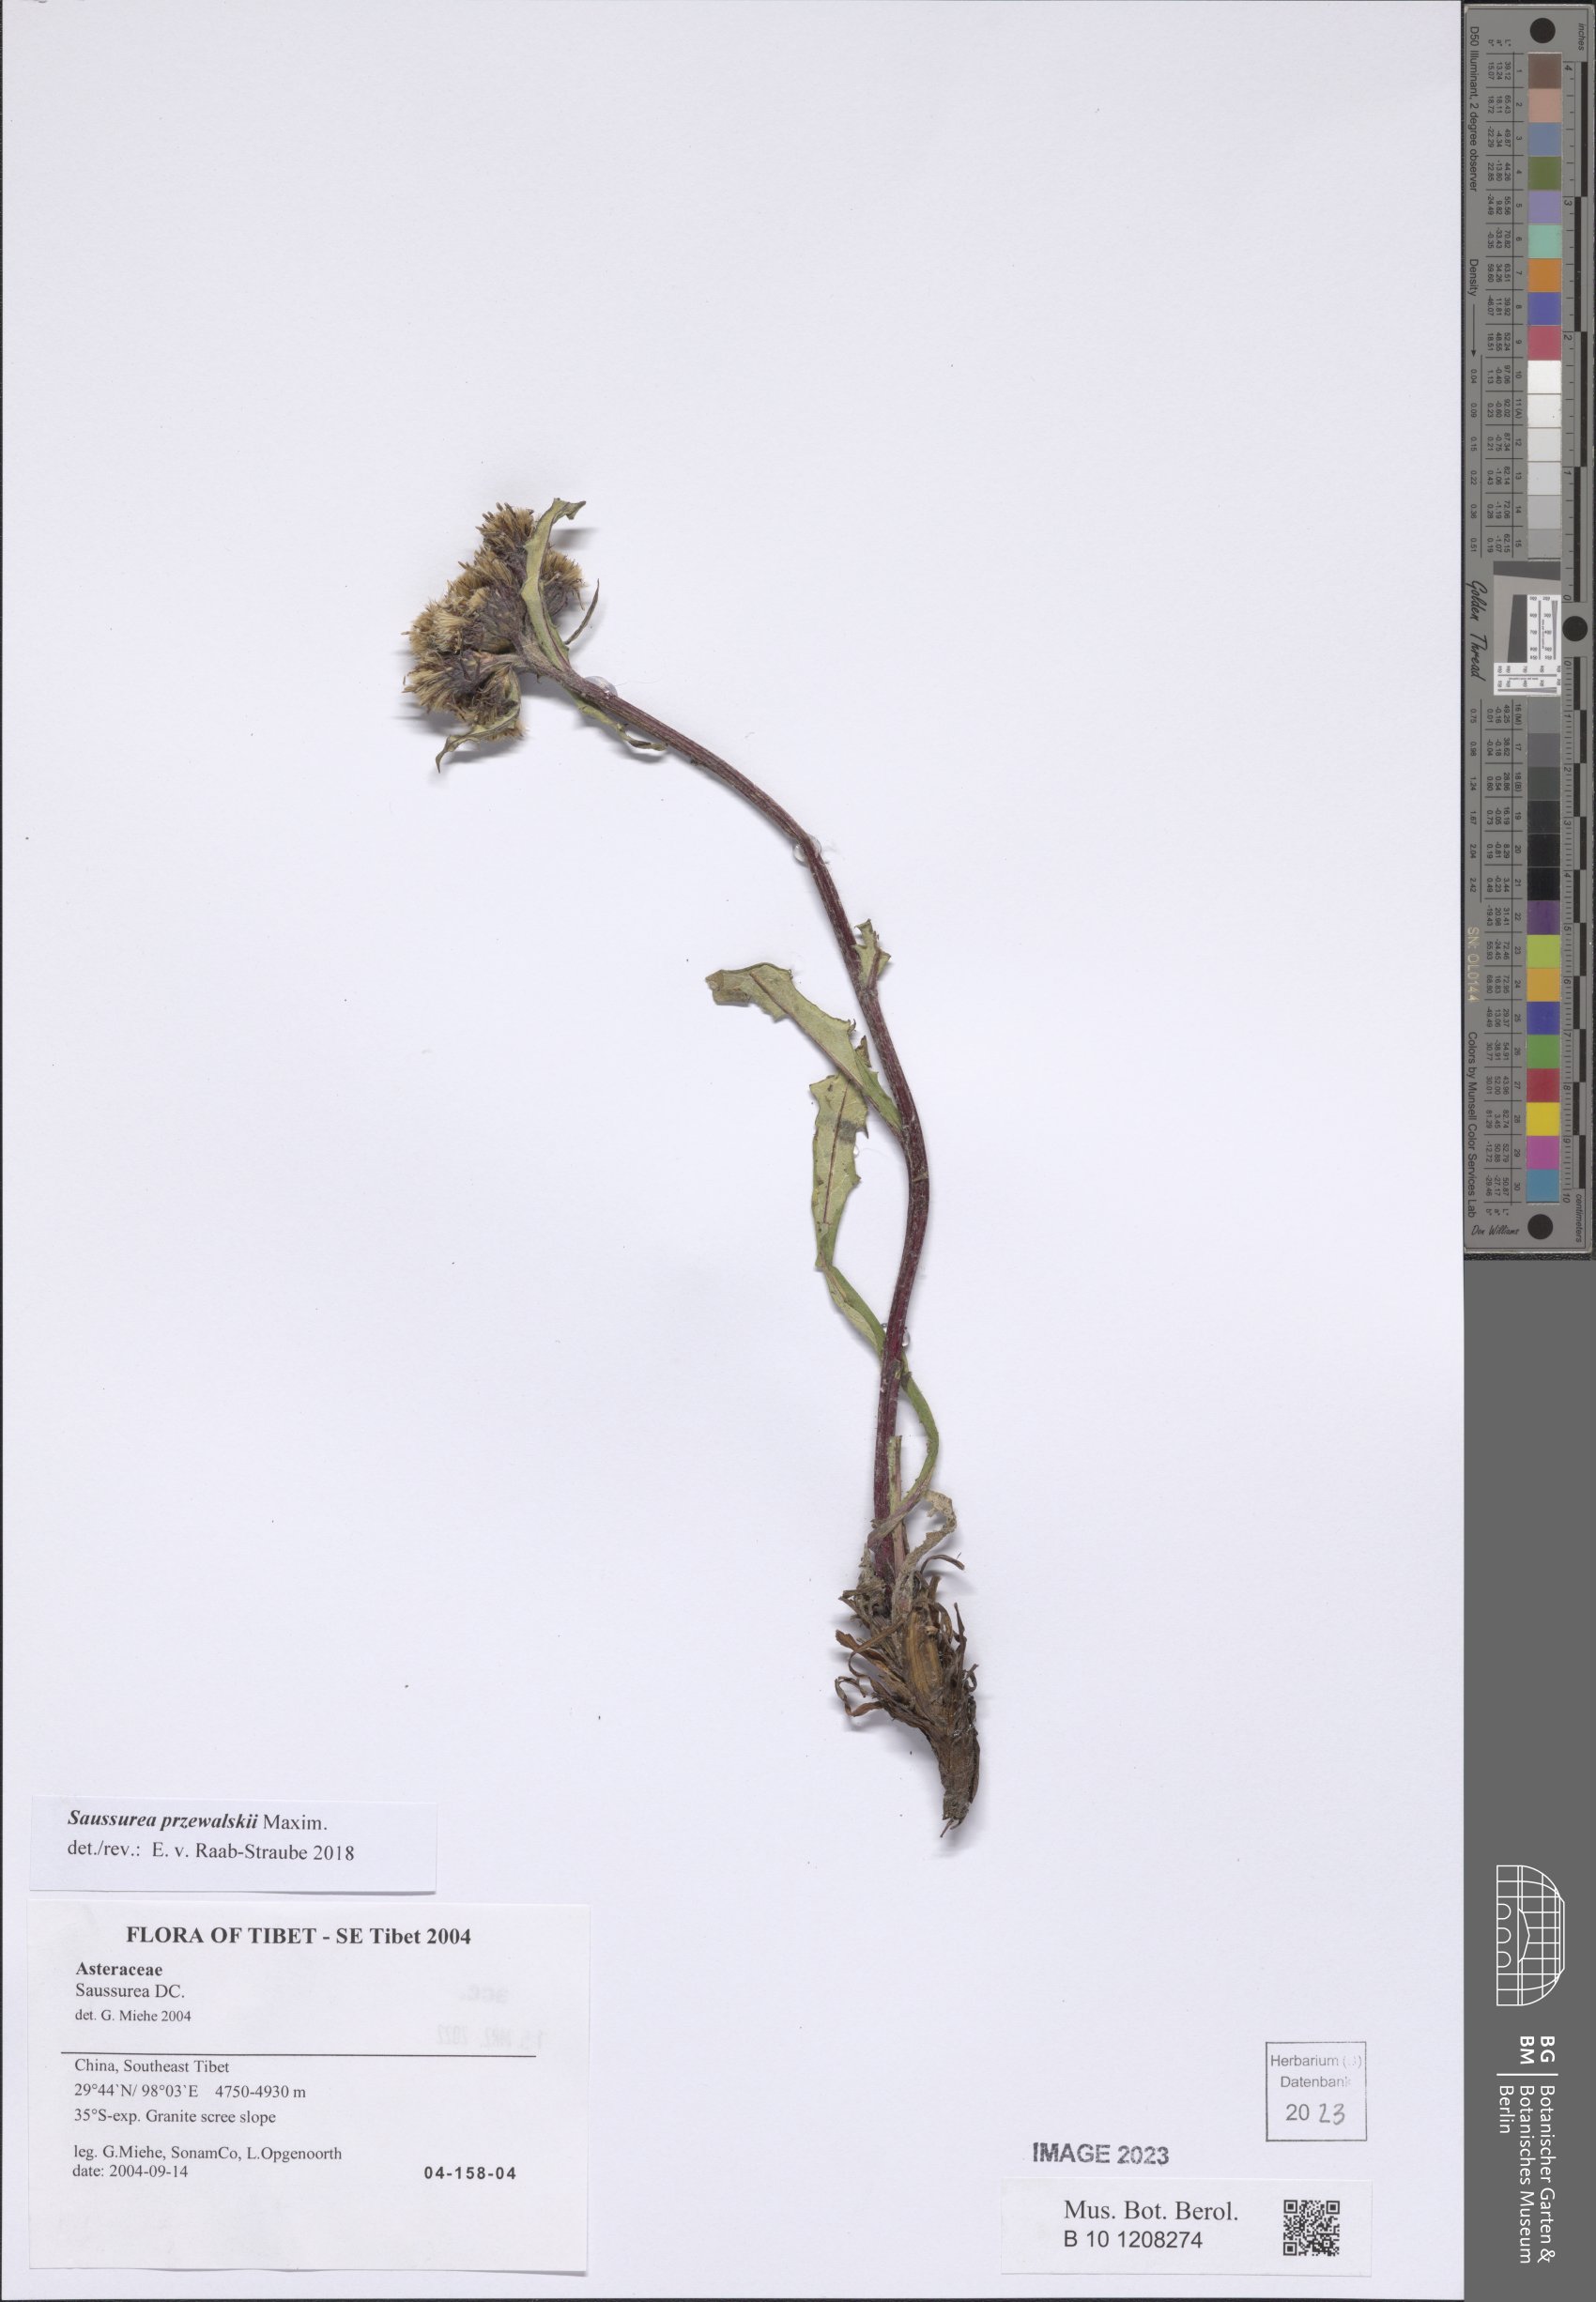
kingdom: Plantae
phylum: Tracheophyta
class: Magnoliopsida
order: Asterales
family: Asteraceae
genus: Saussurea
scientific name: Saussurea przewalskii
